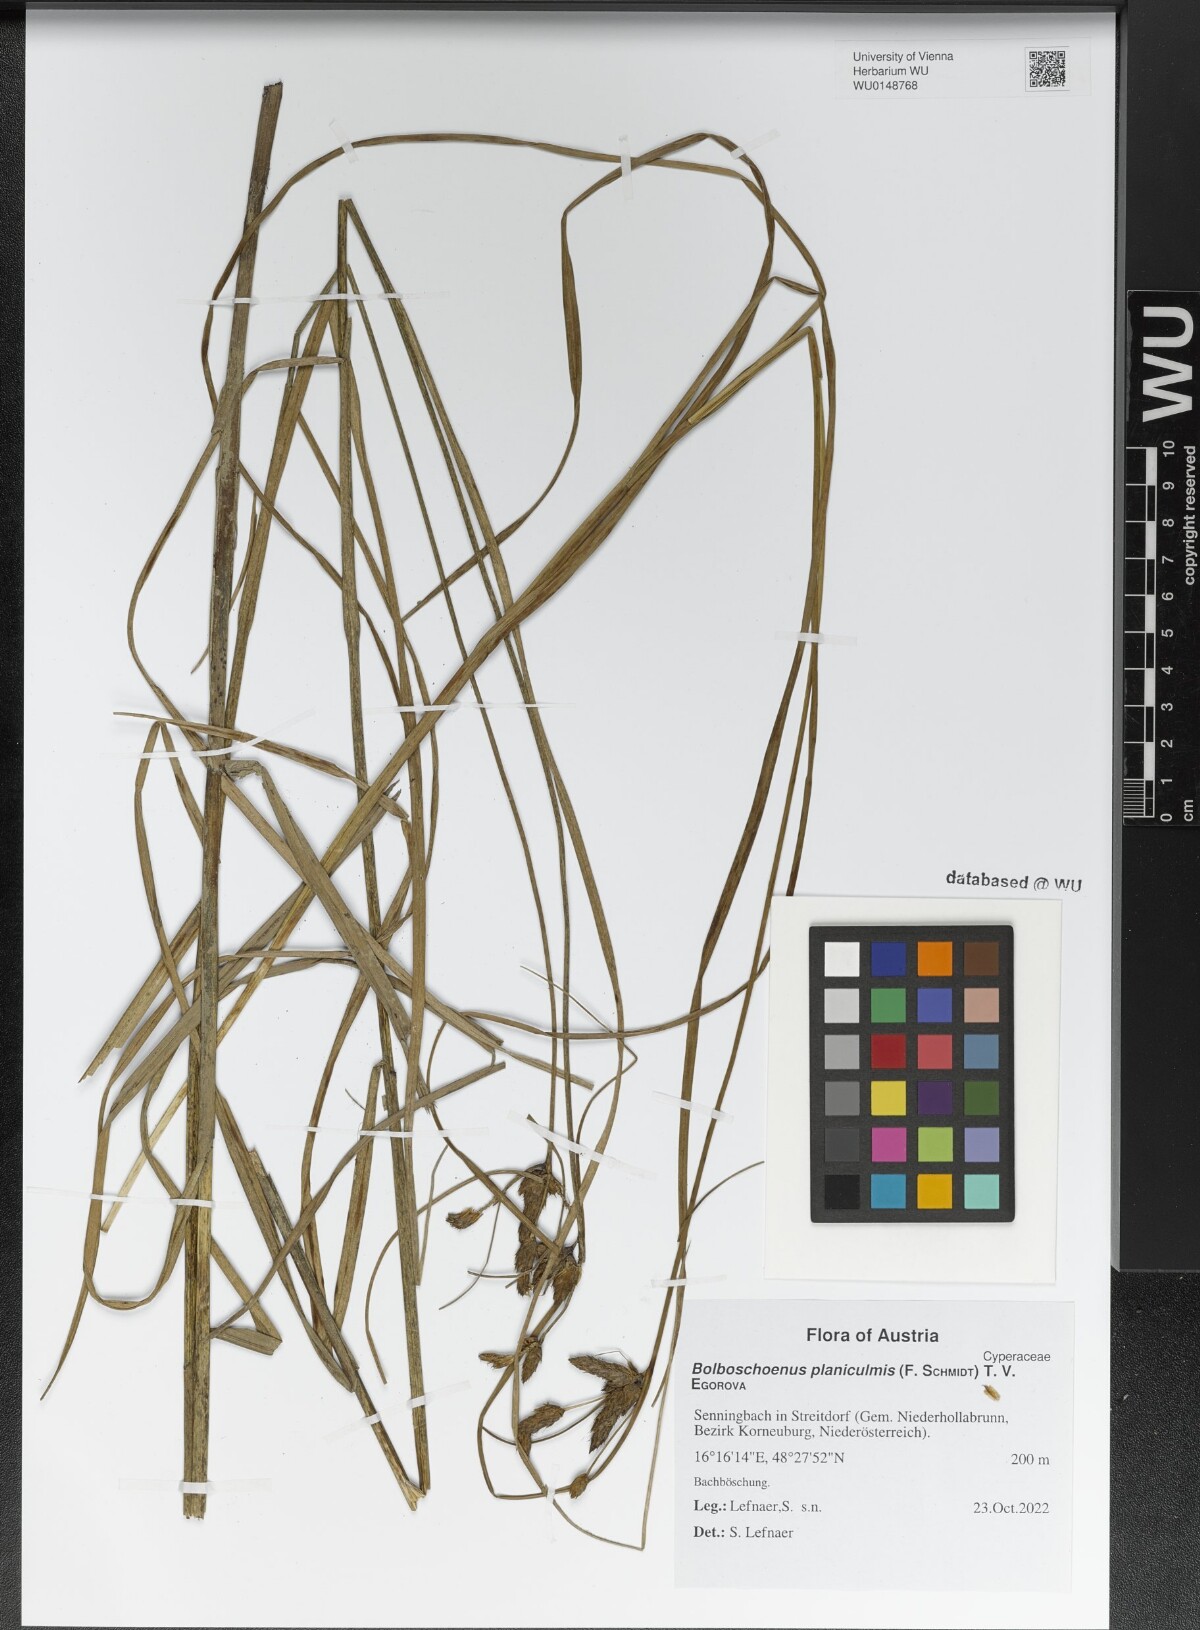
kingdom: Plantae
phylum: Tracheophyta
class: Liliopsida
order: Poales
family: Cyperaceae
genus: Bolboschoenus
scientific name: Bolboschoenus planiculmis
